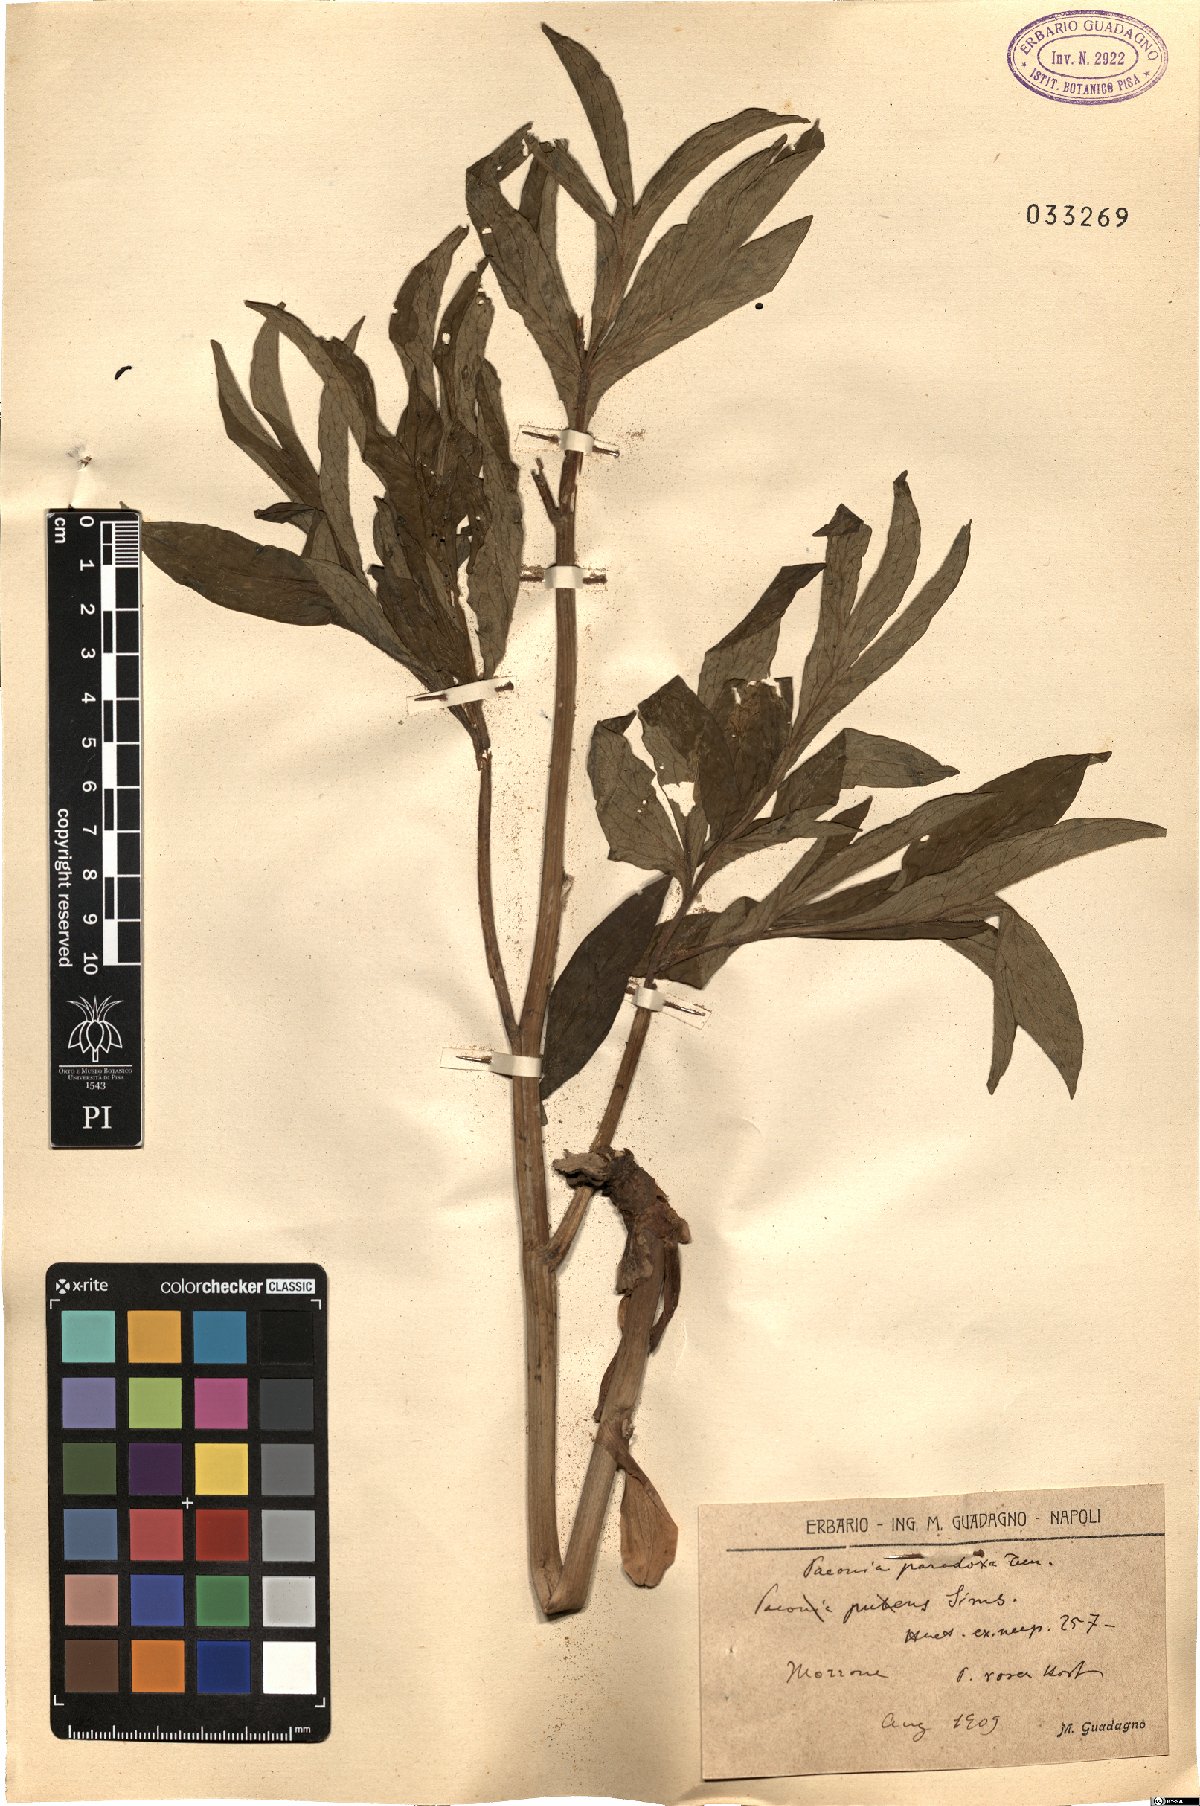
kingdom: Plantae
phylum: Tracheophyta
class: Magnoliopsida
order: Saxifragales
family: Paeoniaceae
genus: Paeonia
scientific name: Paeonia officinalis
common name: Common peony
